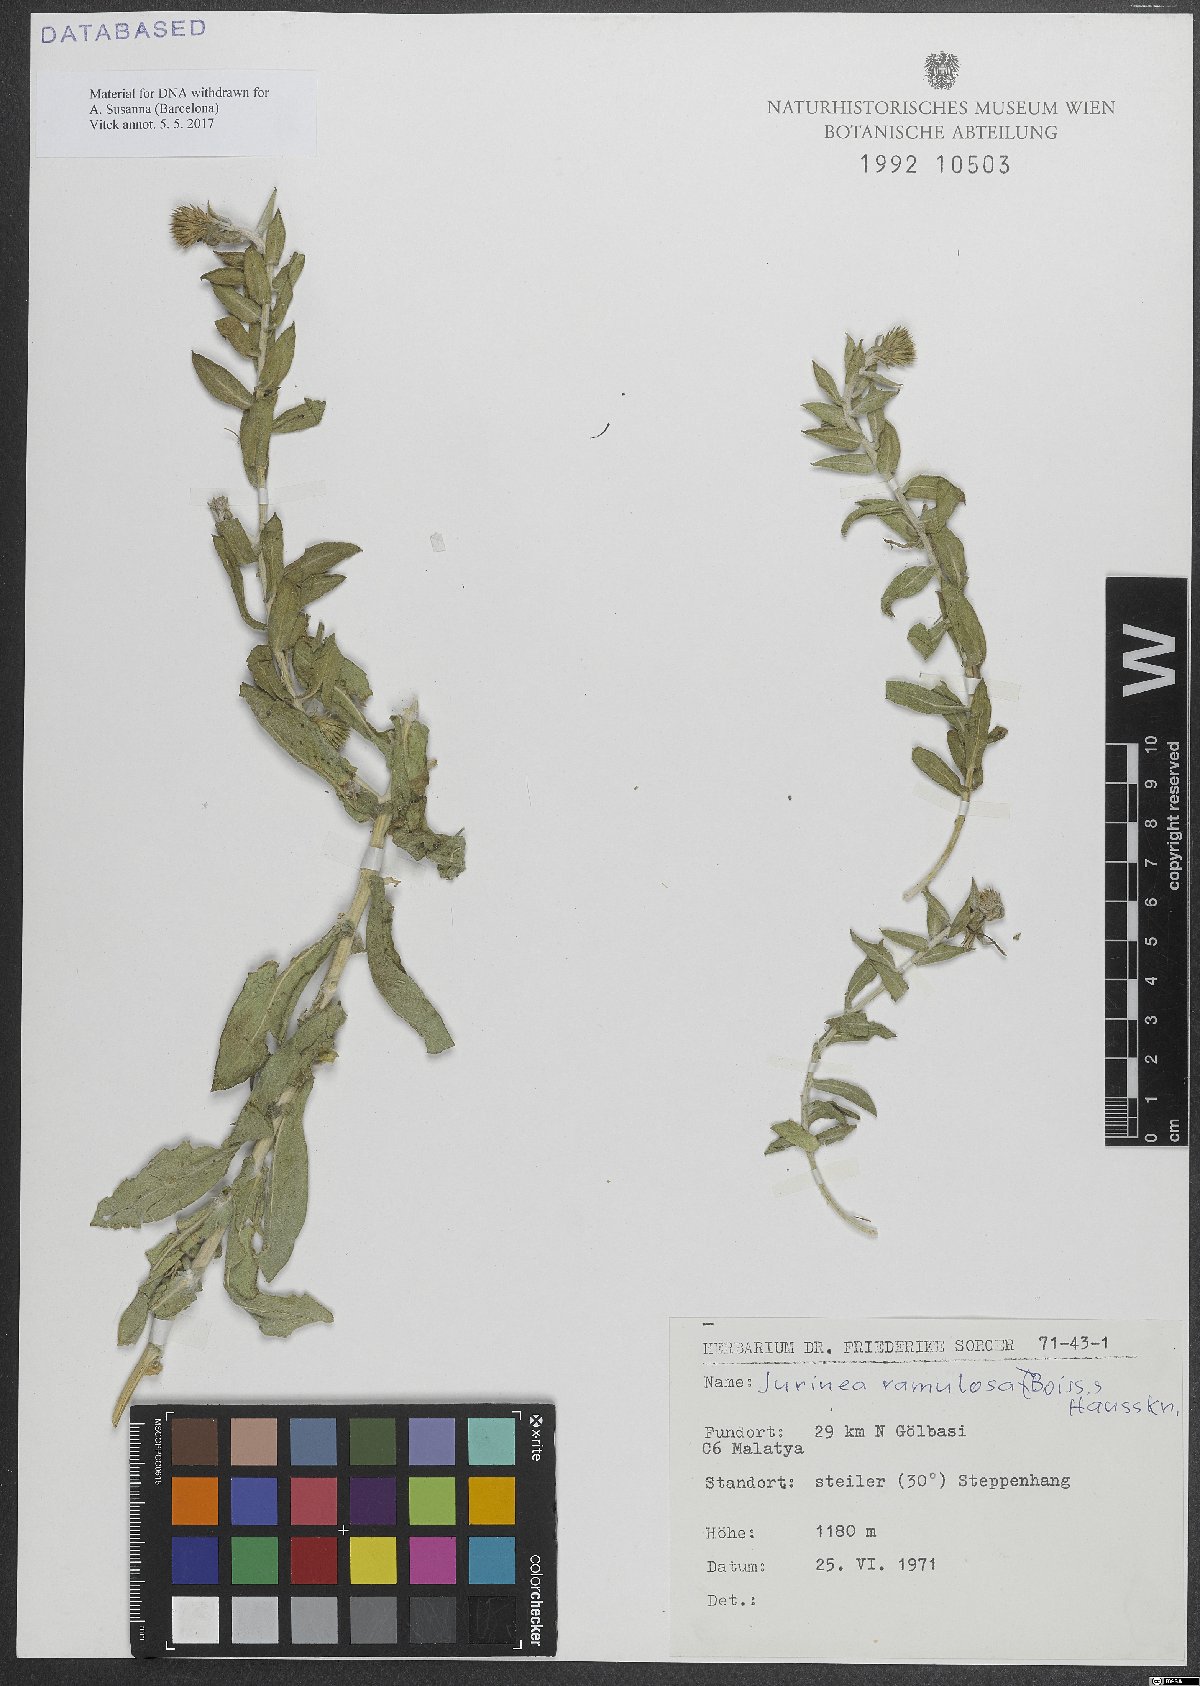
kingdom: Plantae
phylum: Tracheophyta
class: Magnoliopsida
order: Asterales
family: Asteraceae
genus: Jurinea
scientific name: Jurinea ramulosa
